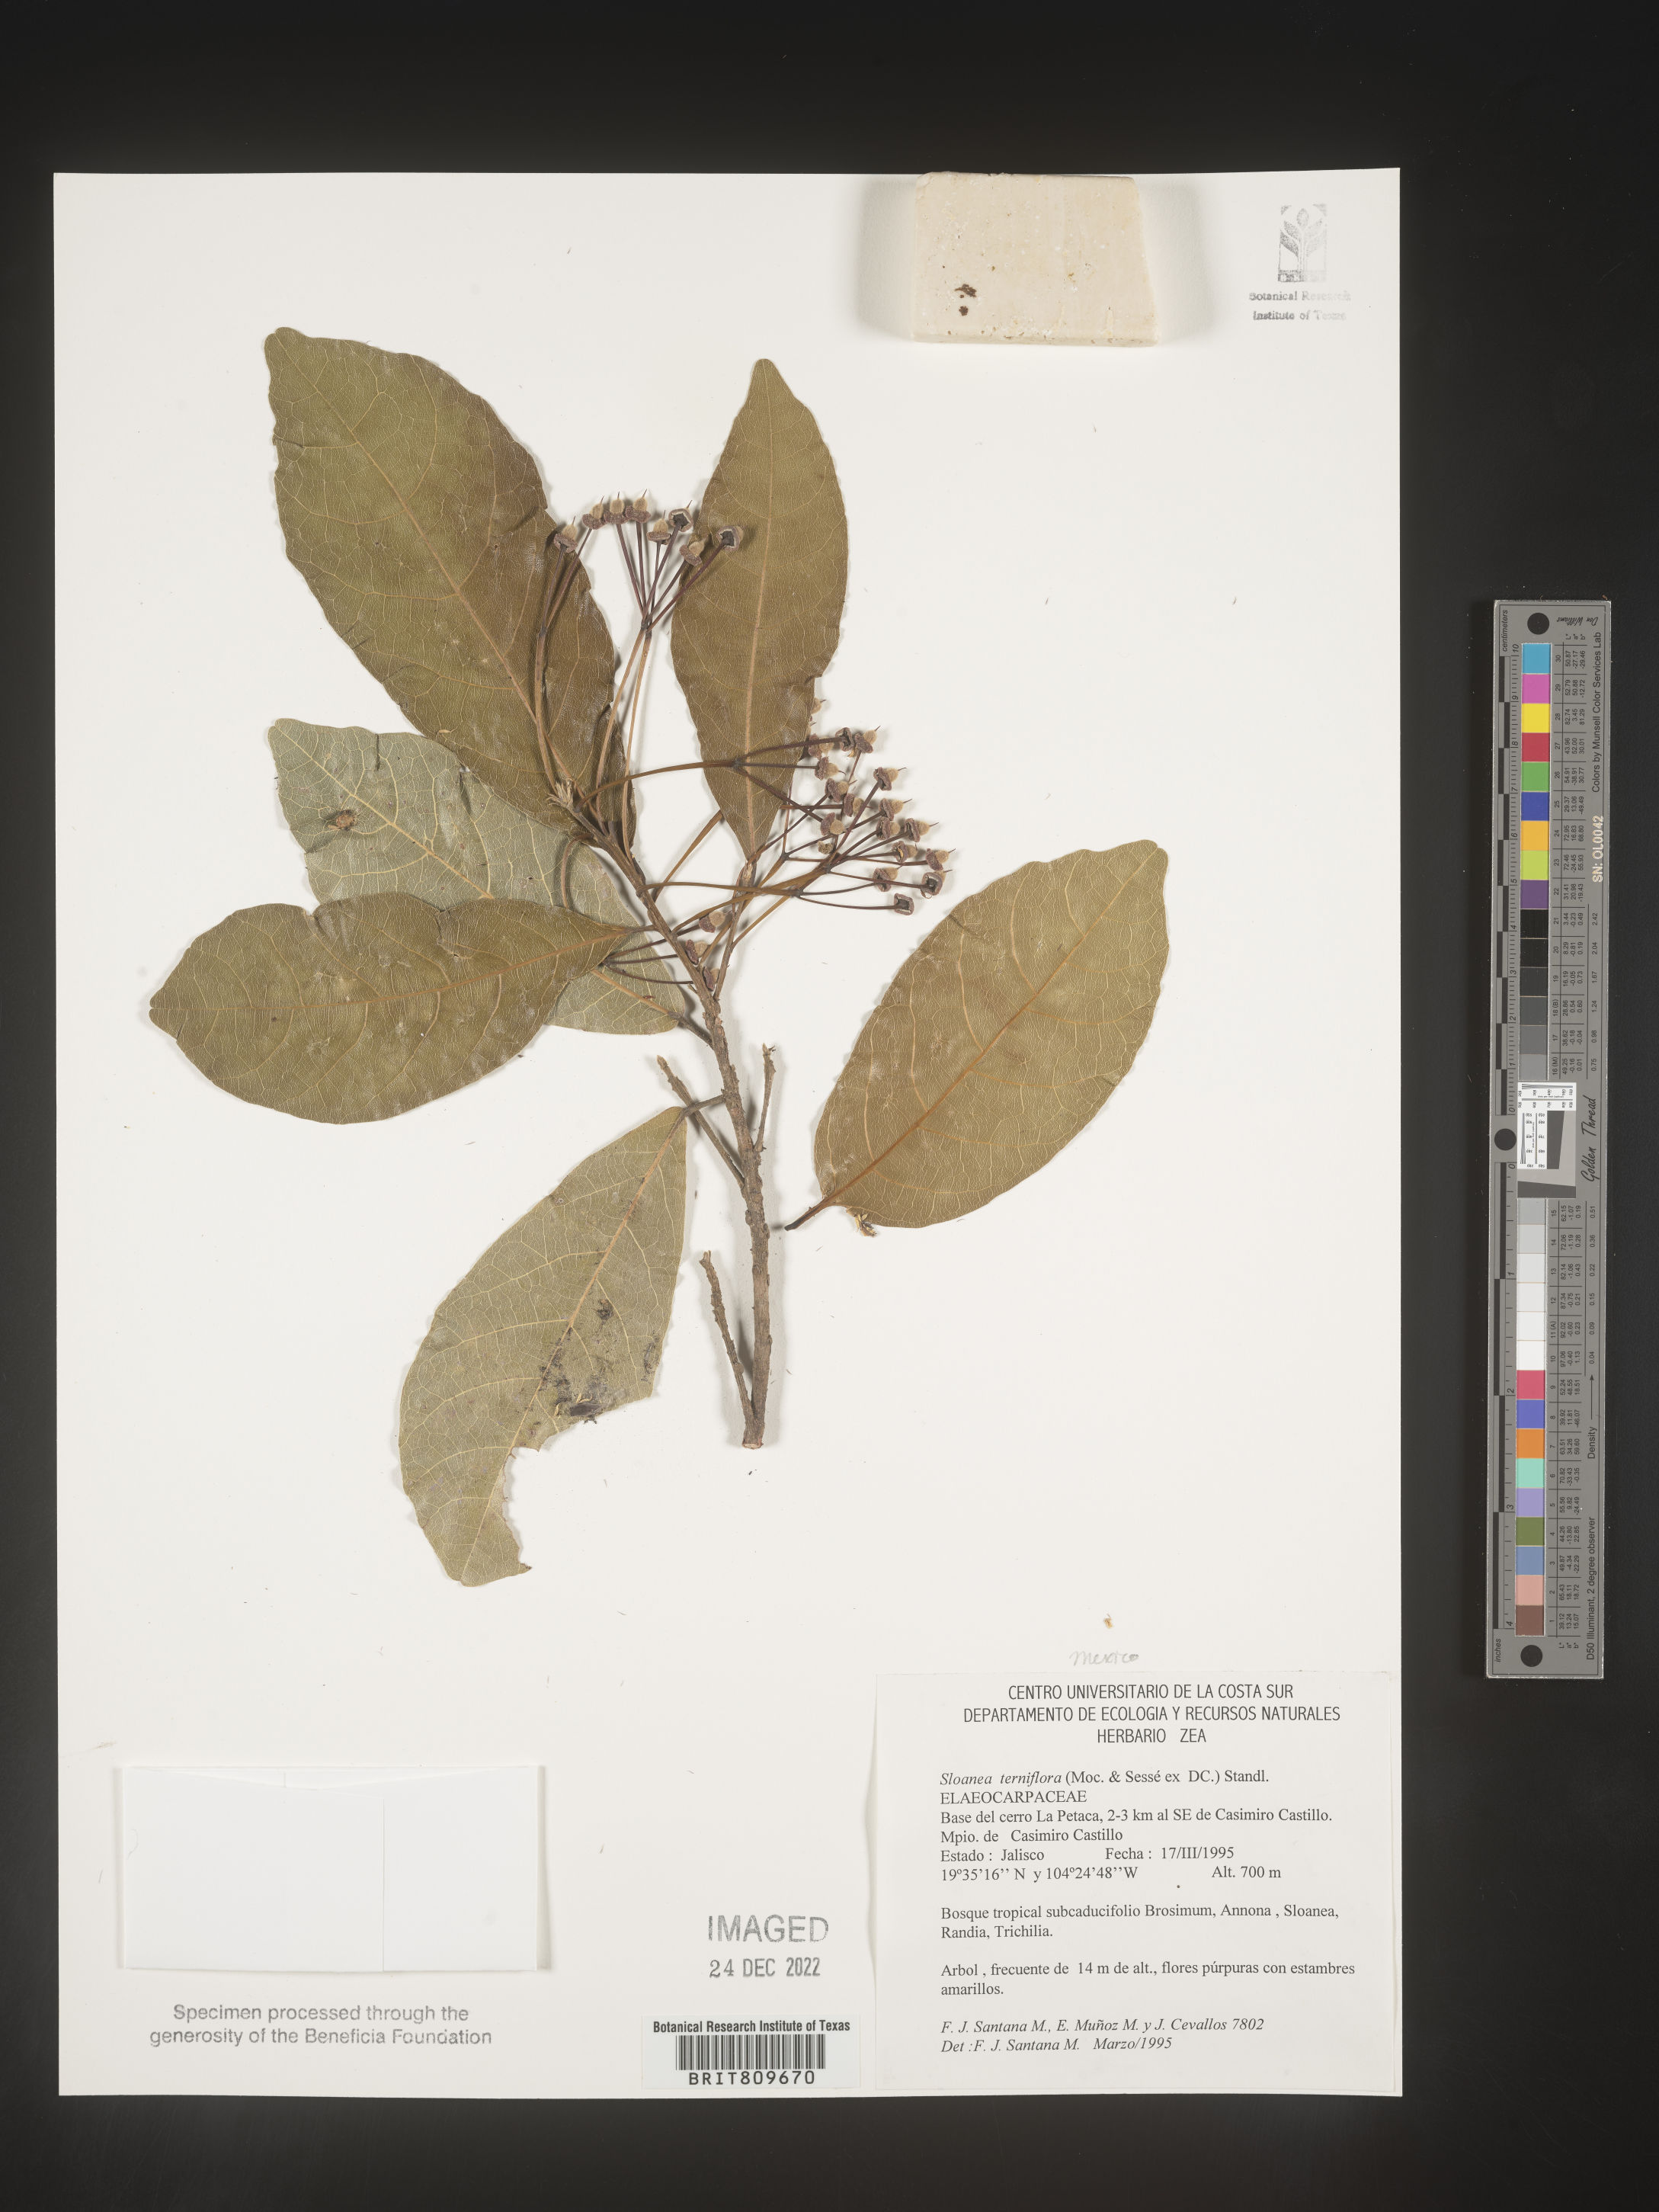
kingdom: Plantae
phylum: Tracheophyta
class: Magnoliopsida
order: Oxalidales
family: Elaeocarpaceae
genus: Sloanea
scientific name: Sloanea
